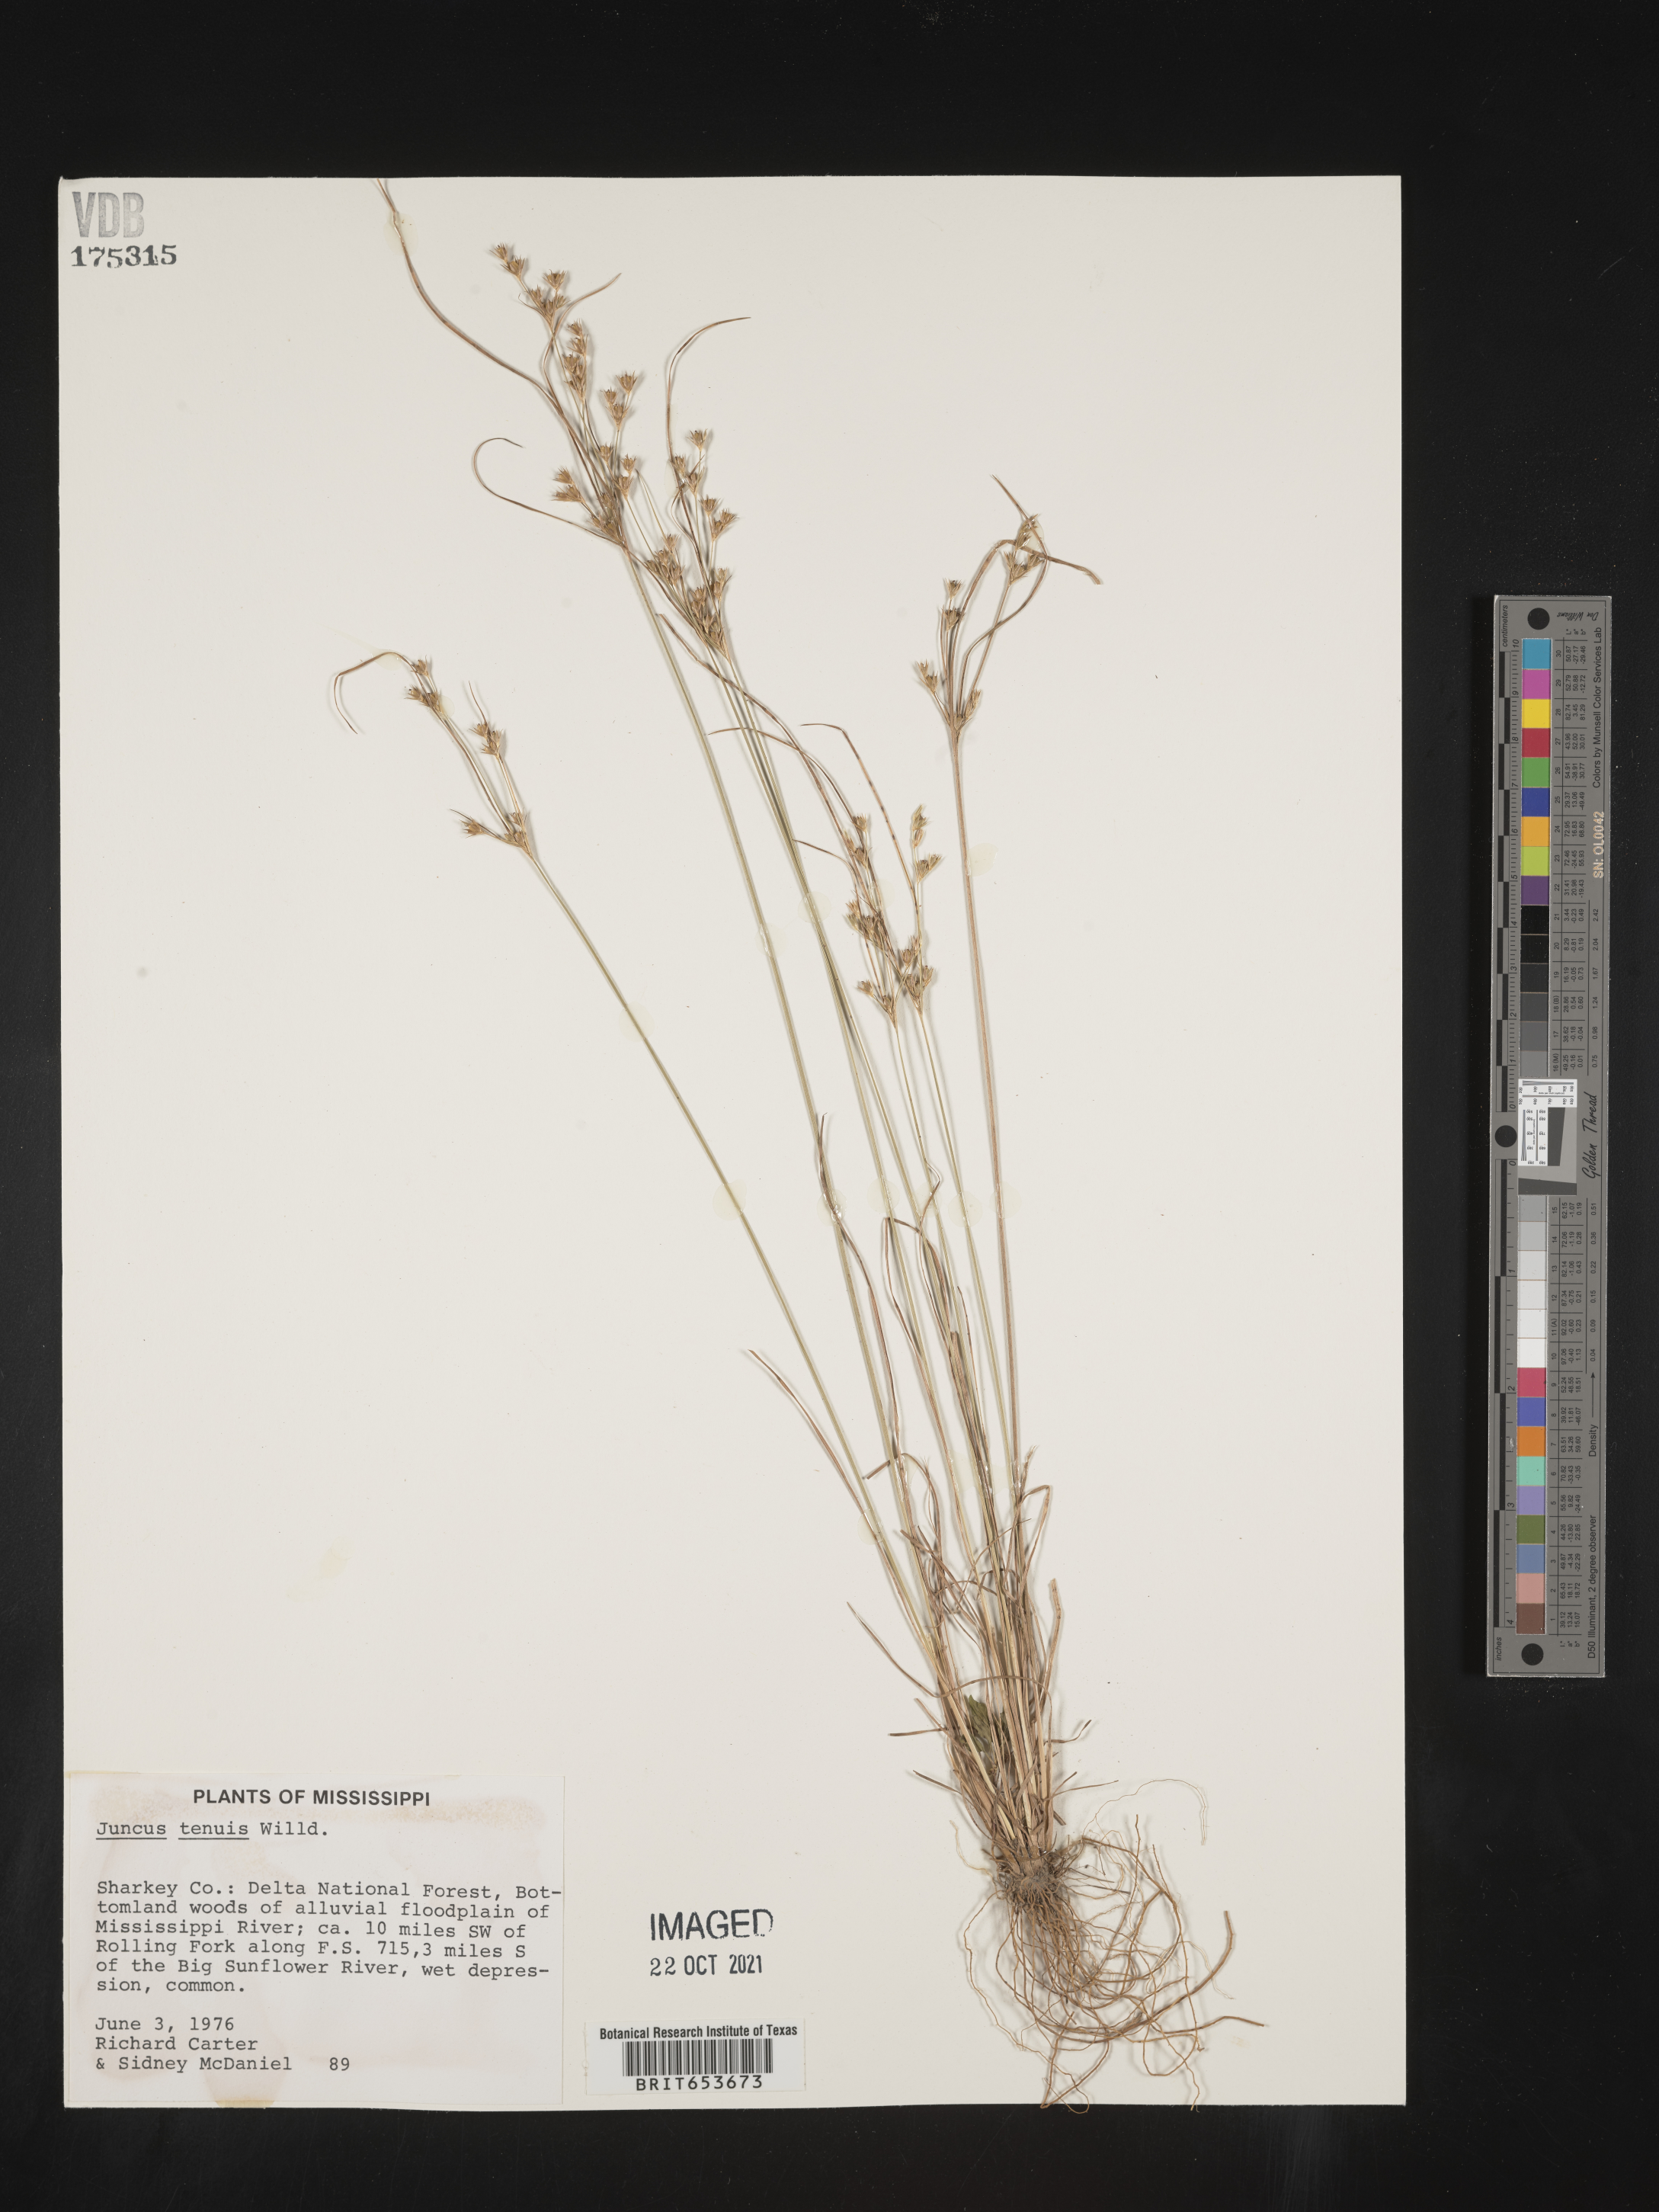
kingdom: Plantae
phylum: Tracheophyta
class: Liliopsida
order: Poales
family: Juncaceae
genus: Juncus
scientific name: Juncus tenuis
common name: Slender rush
